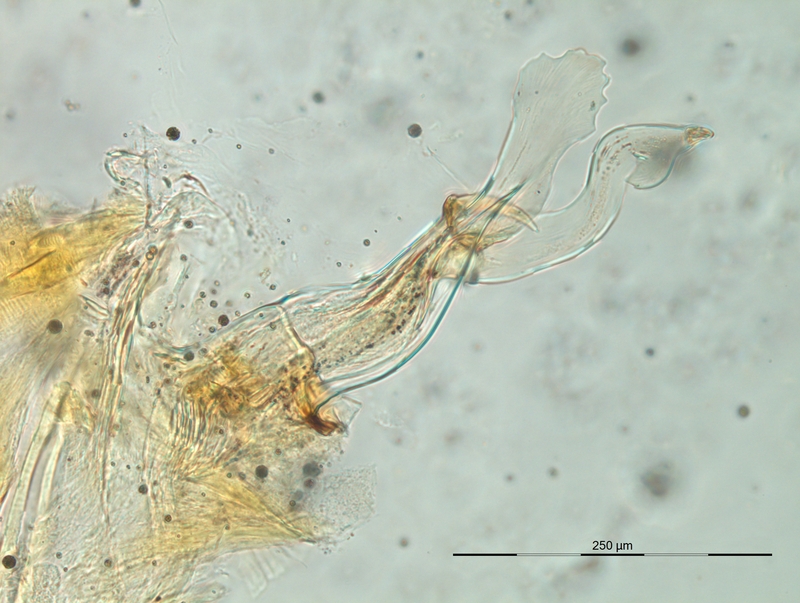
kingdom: Animalia
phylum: Arthropoda
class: Diplopoda
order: Chordeumatida
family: Craspedosomatidae
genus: Bomogona
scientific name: Bomogona helvetica
